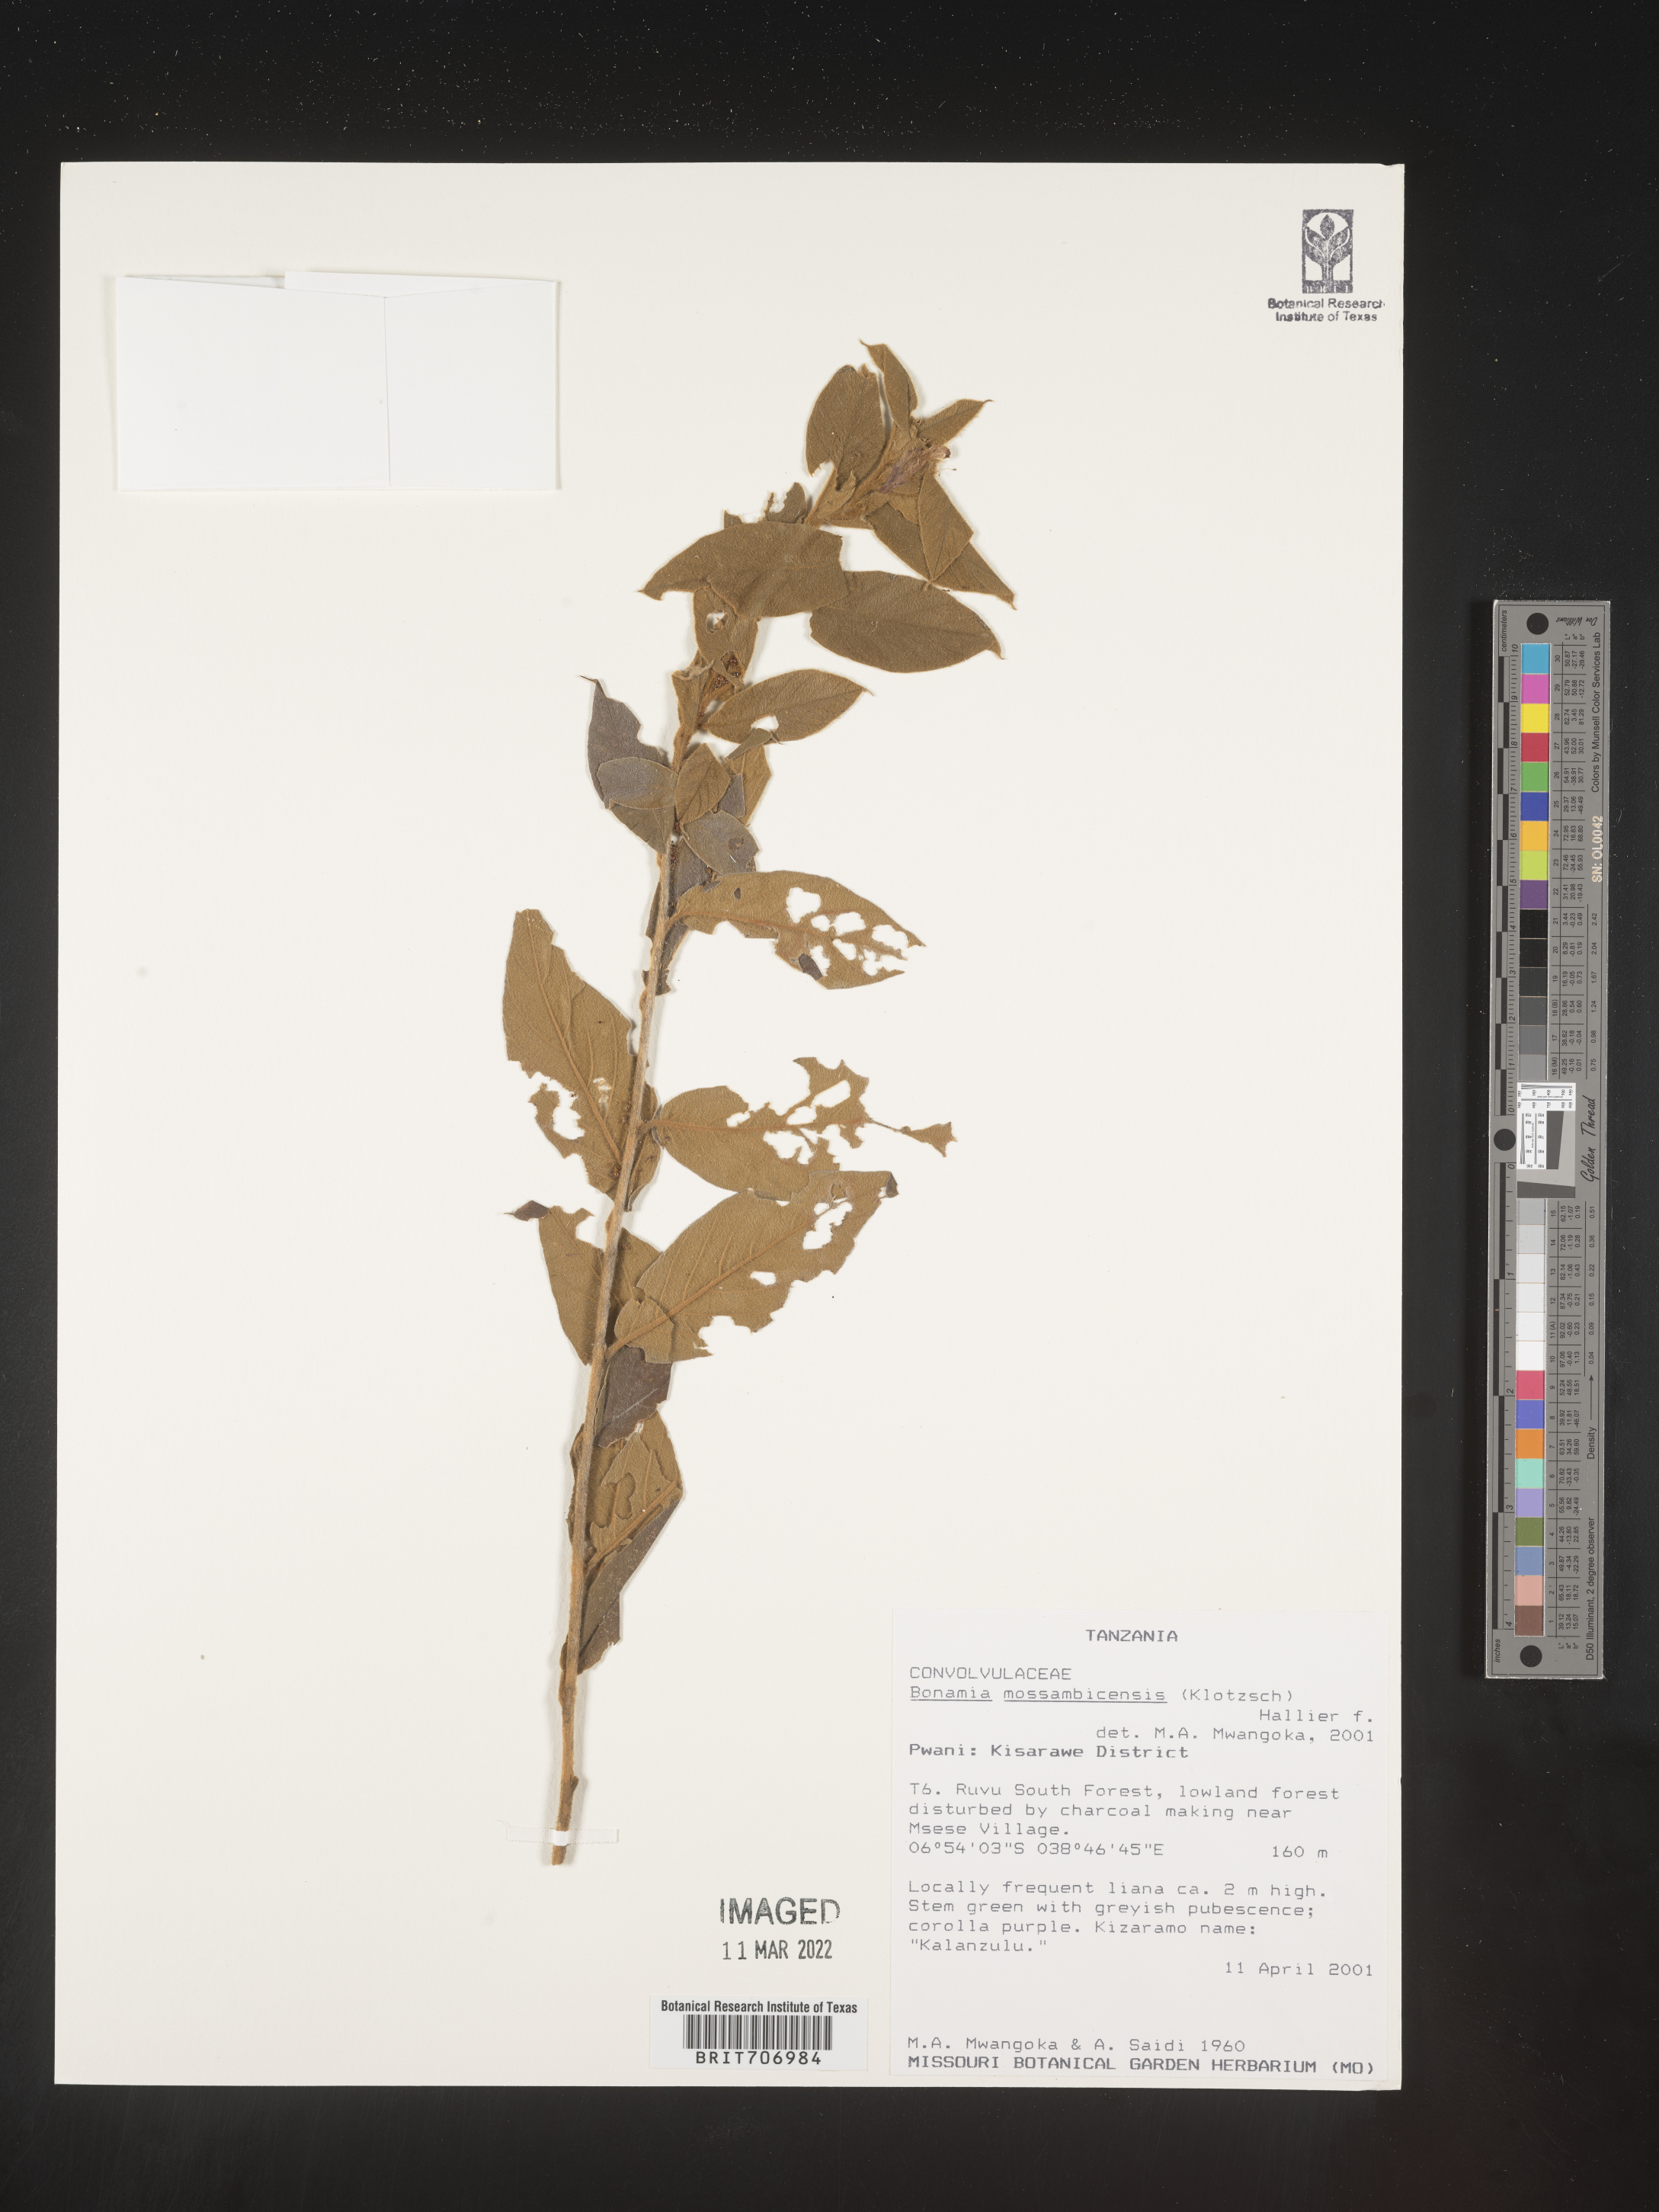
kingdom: Plantae
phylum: Tracheophyta
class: Magnoliopsida
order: Solanales
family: Convolvulaceae
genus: Bonamia
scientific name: Bonamia
